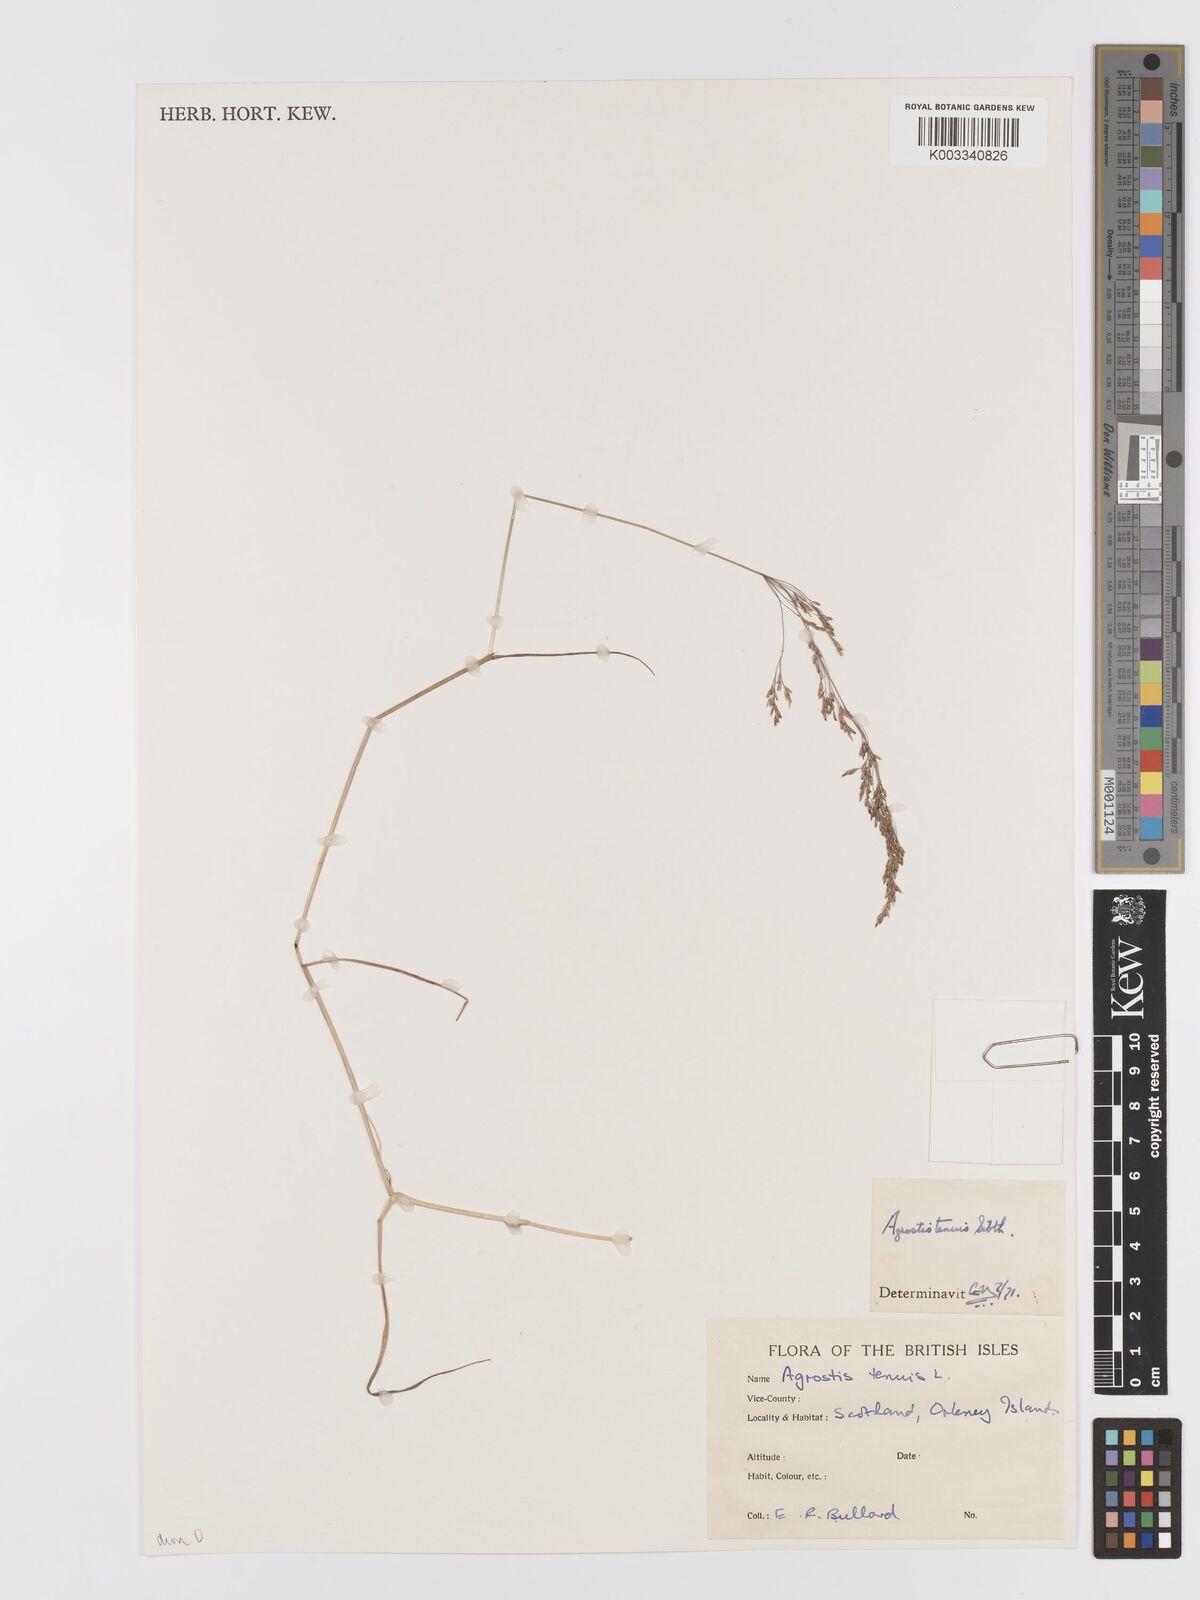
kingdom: Plantae
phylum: Tracheophyta
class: Liliopsida
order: Poales
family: Poaceae
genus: Agrostis
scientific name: Agrostis capillaris
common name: Colonial bentgrass
